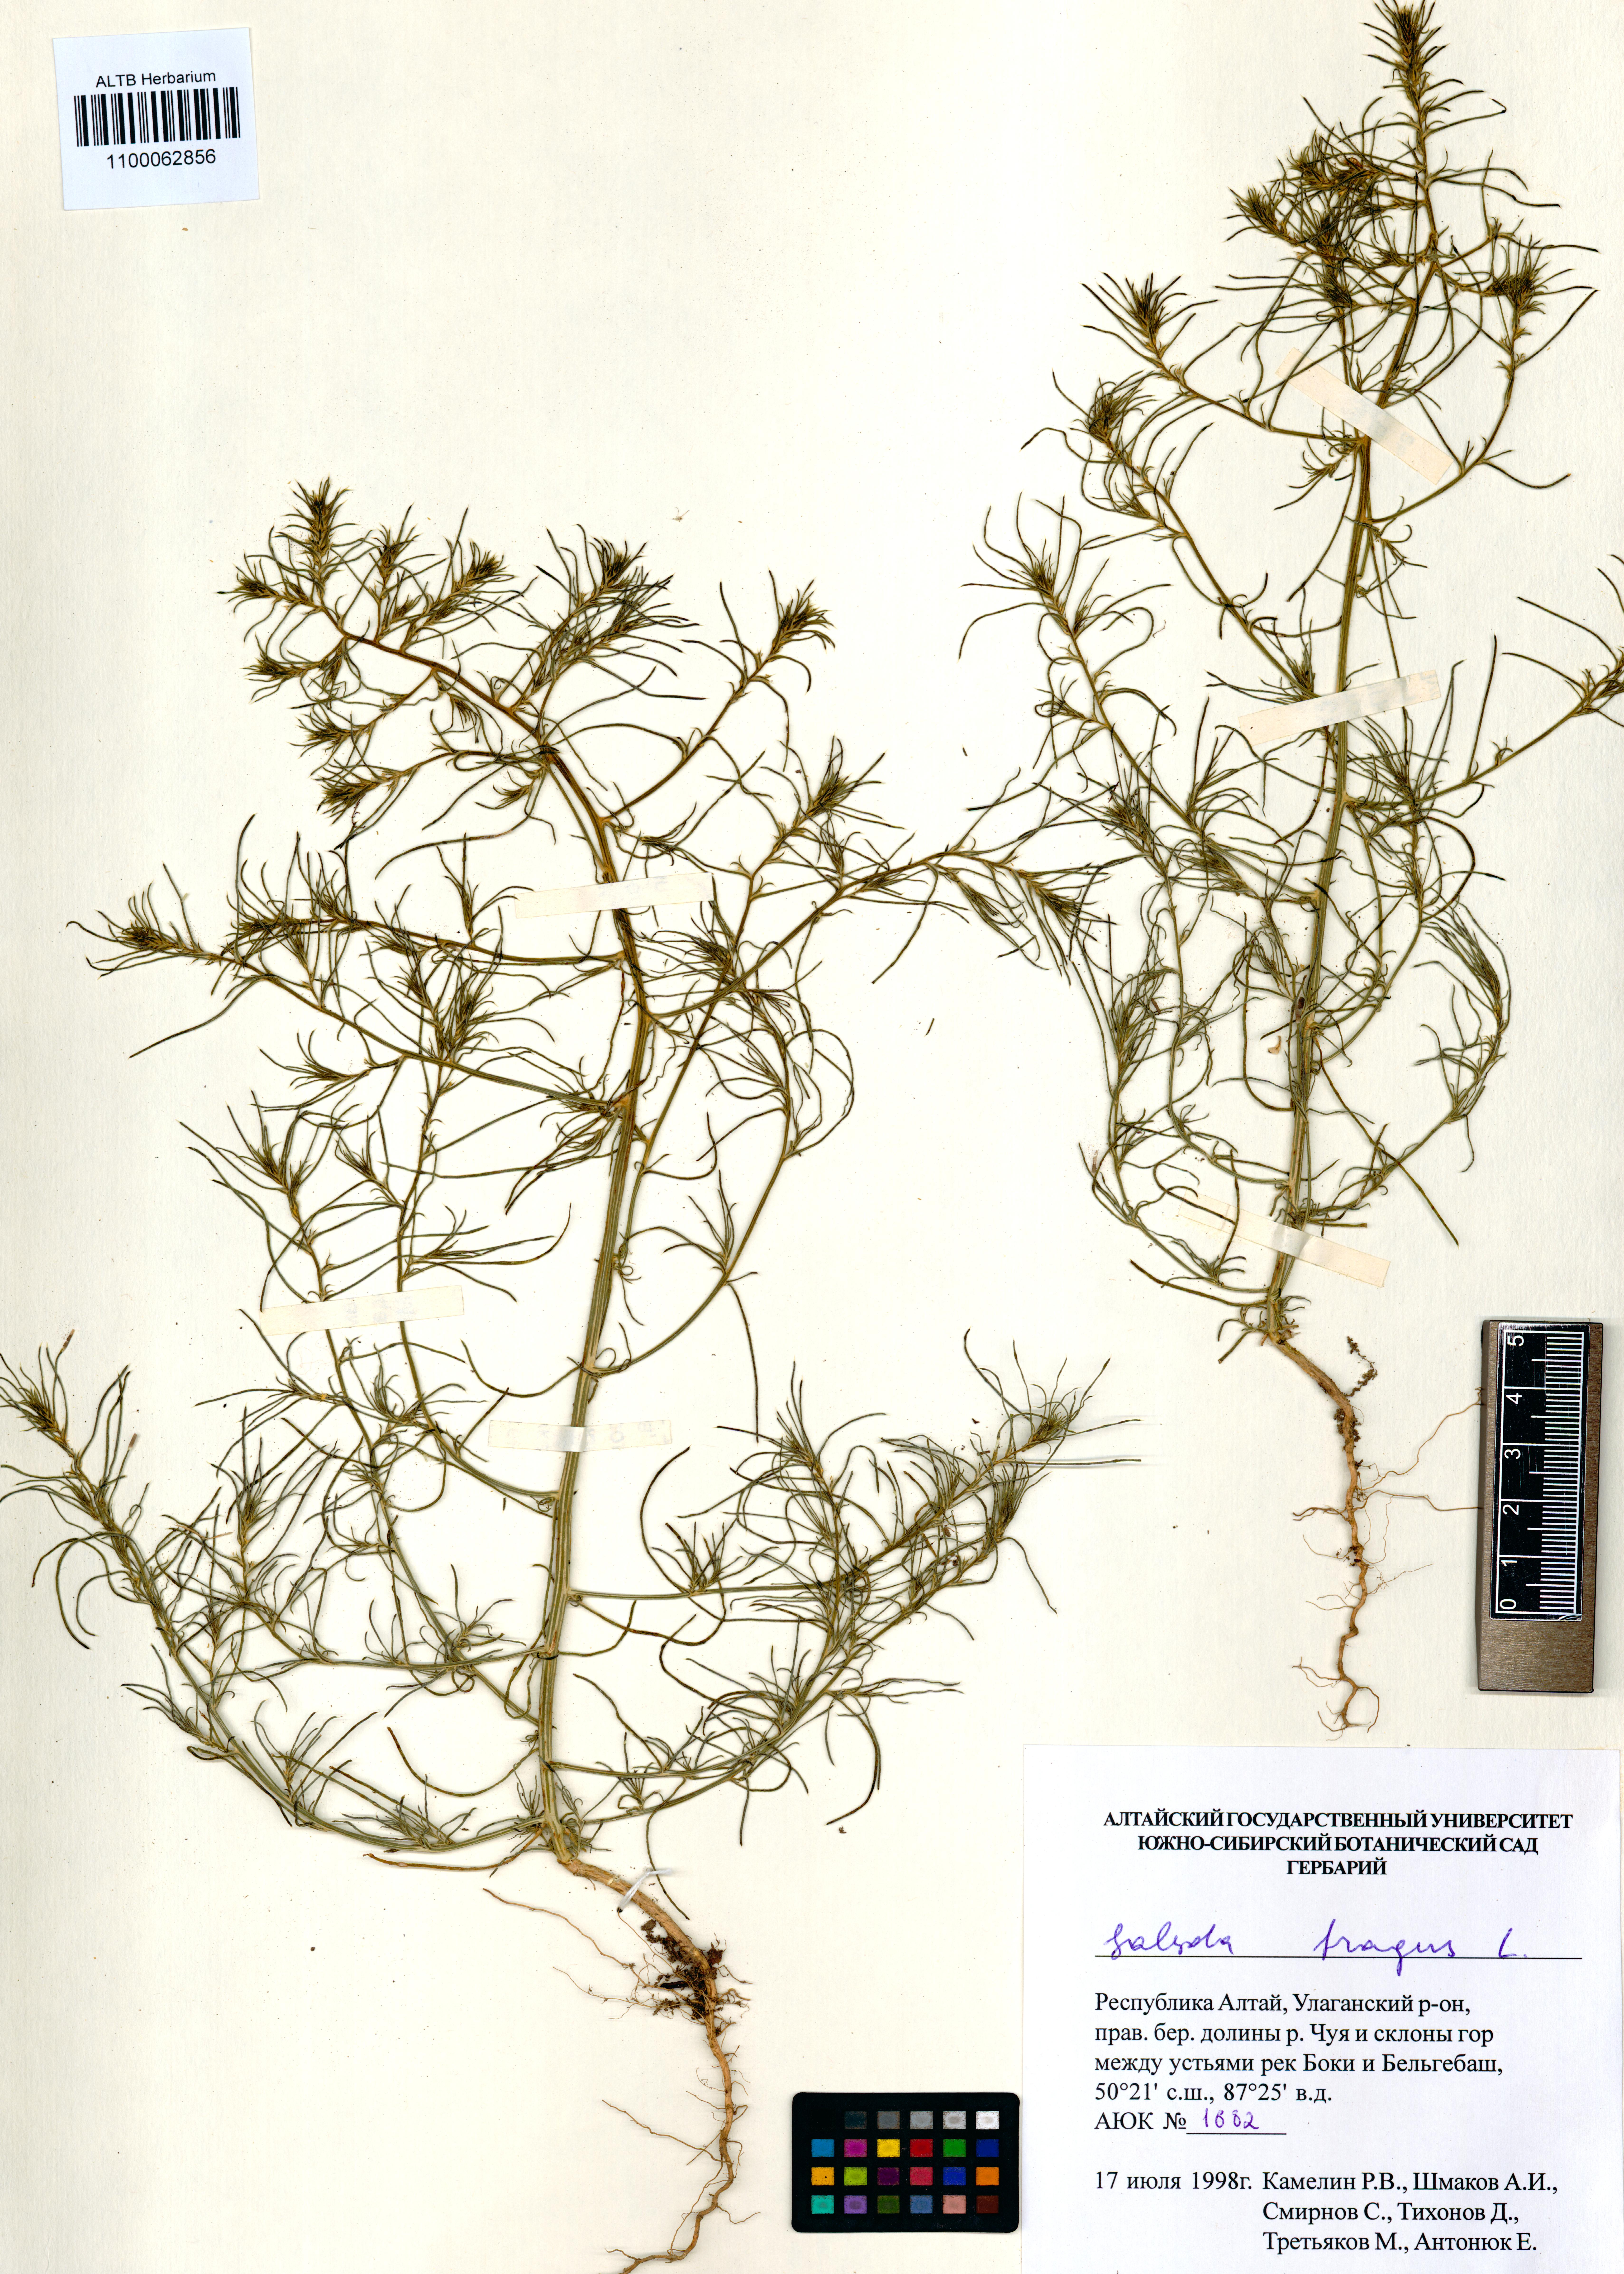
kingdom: Plantae
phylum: Tracheophyta
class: Magnoliopsida
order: Caryophyllales
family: Amaranthaceae
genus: Salsola
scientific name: Salsola tragus
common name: Prickly russian thistle
